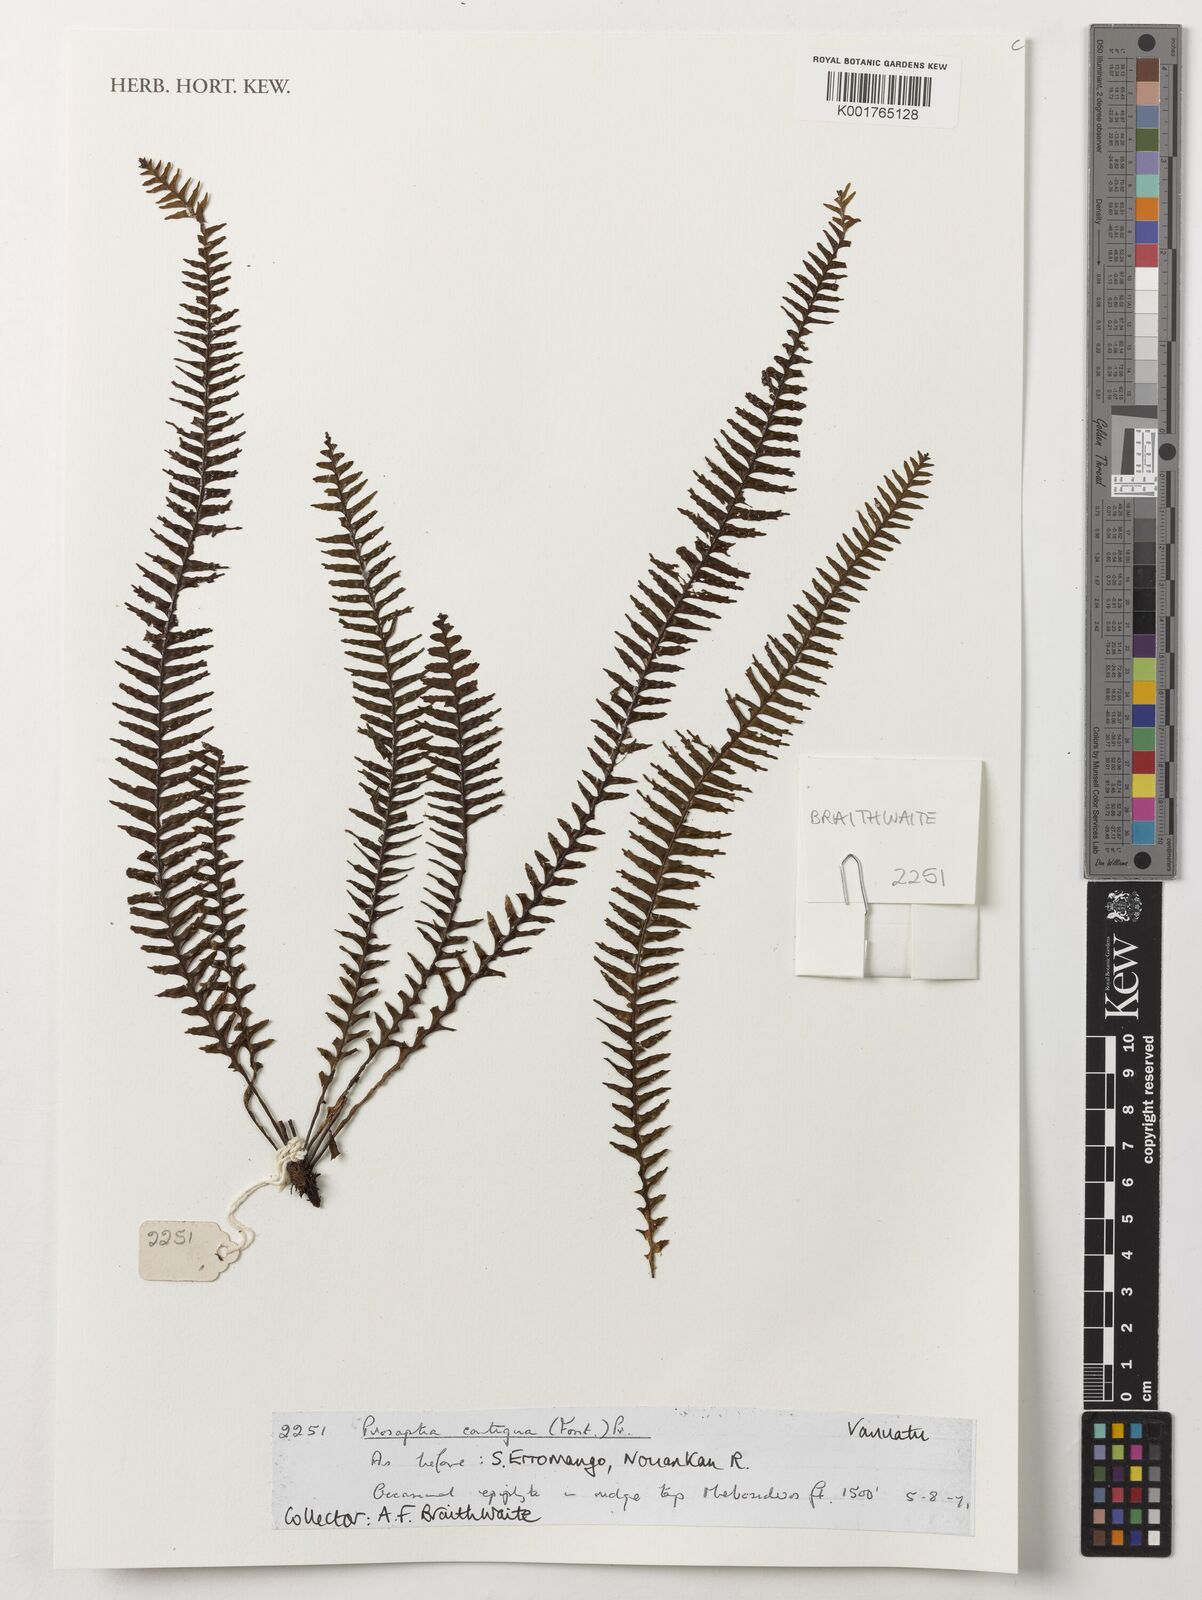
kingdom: Plantae
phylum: Tracheophyta
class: Polypodiopsida
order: Polypodiales
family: Polypodiaceae
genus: Prosaptia
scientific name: Prosaptia contigua
